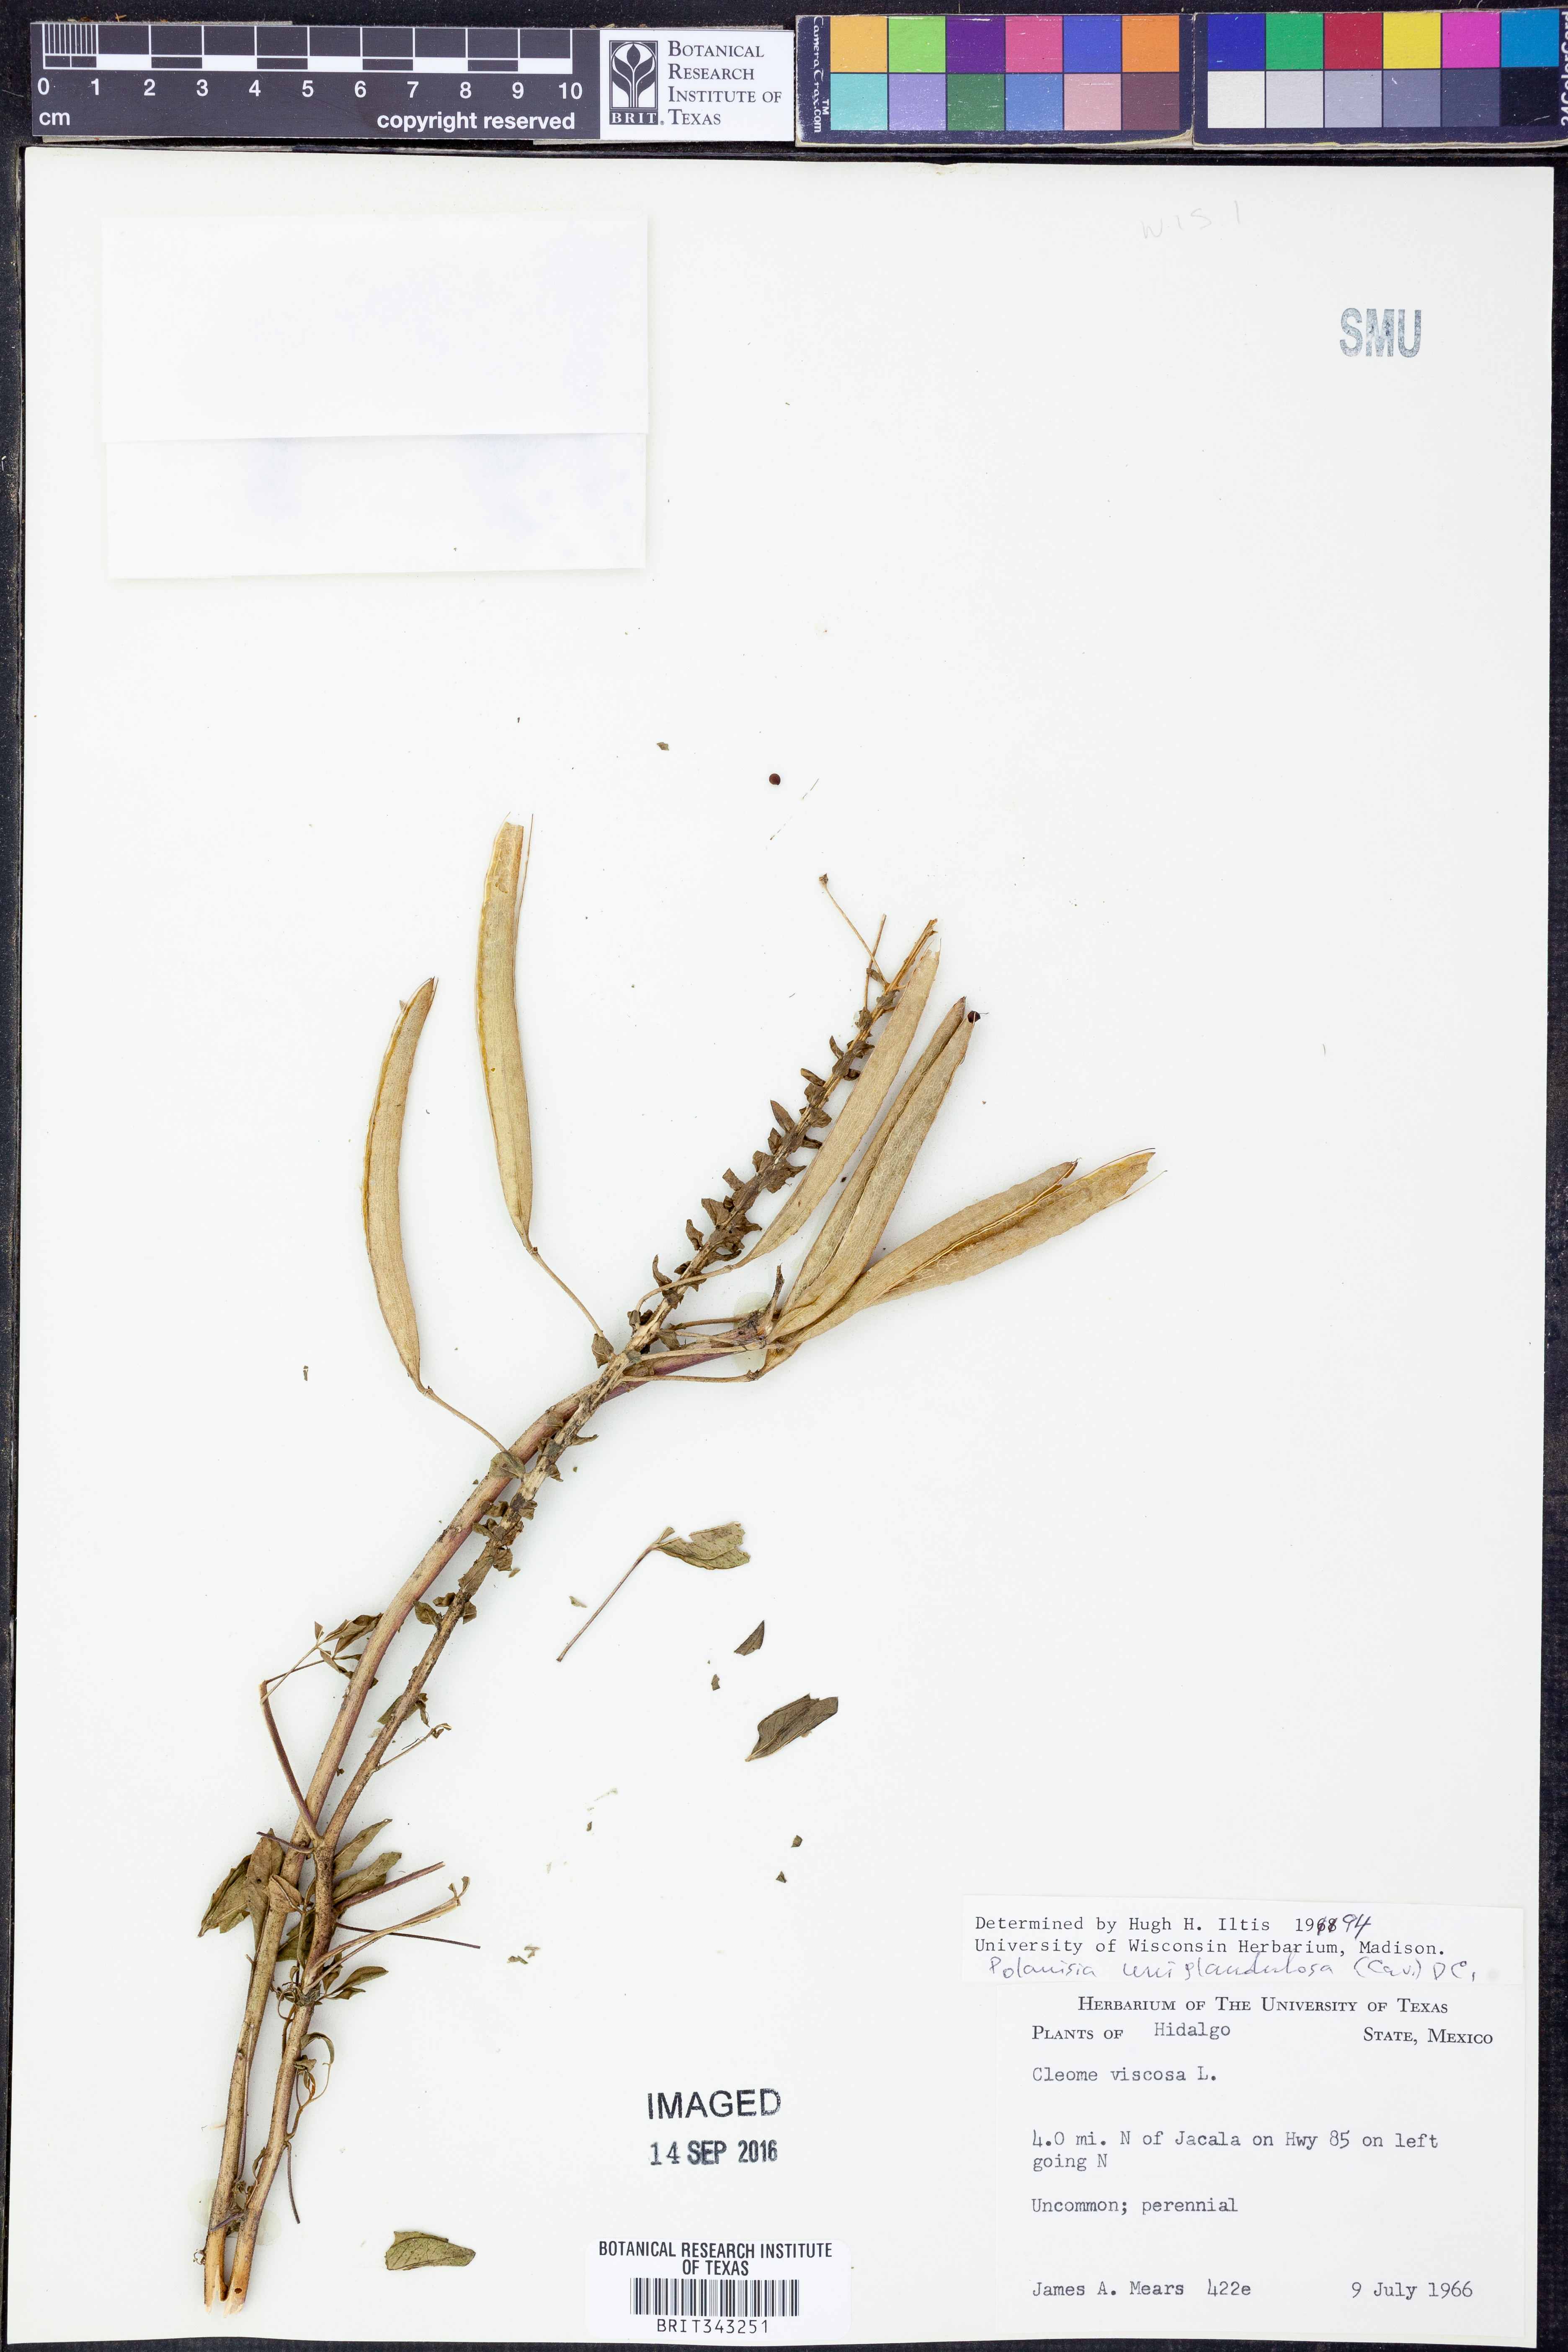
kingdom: Plantae
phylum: Tracheophyta
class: Magnoliopsida
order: Brassicales
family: Cleomaceae
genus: Polanisia
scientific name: Polanisia uniglandulosa
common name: Mexican clammyweed
